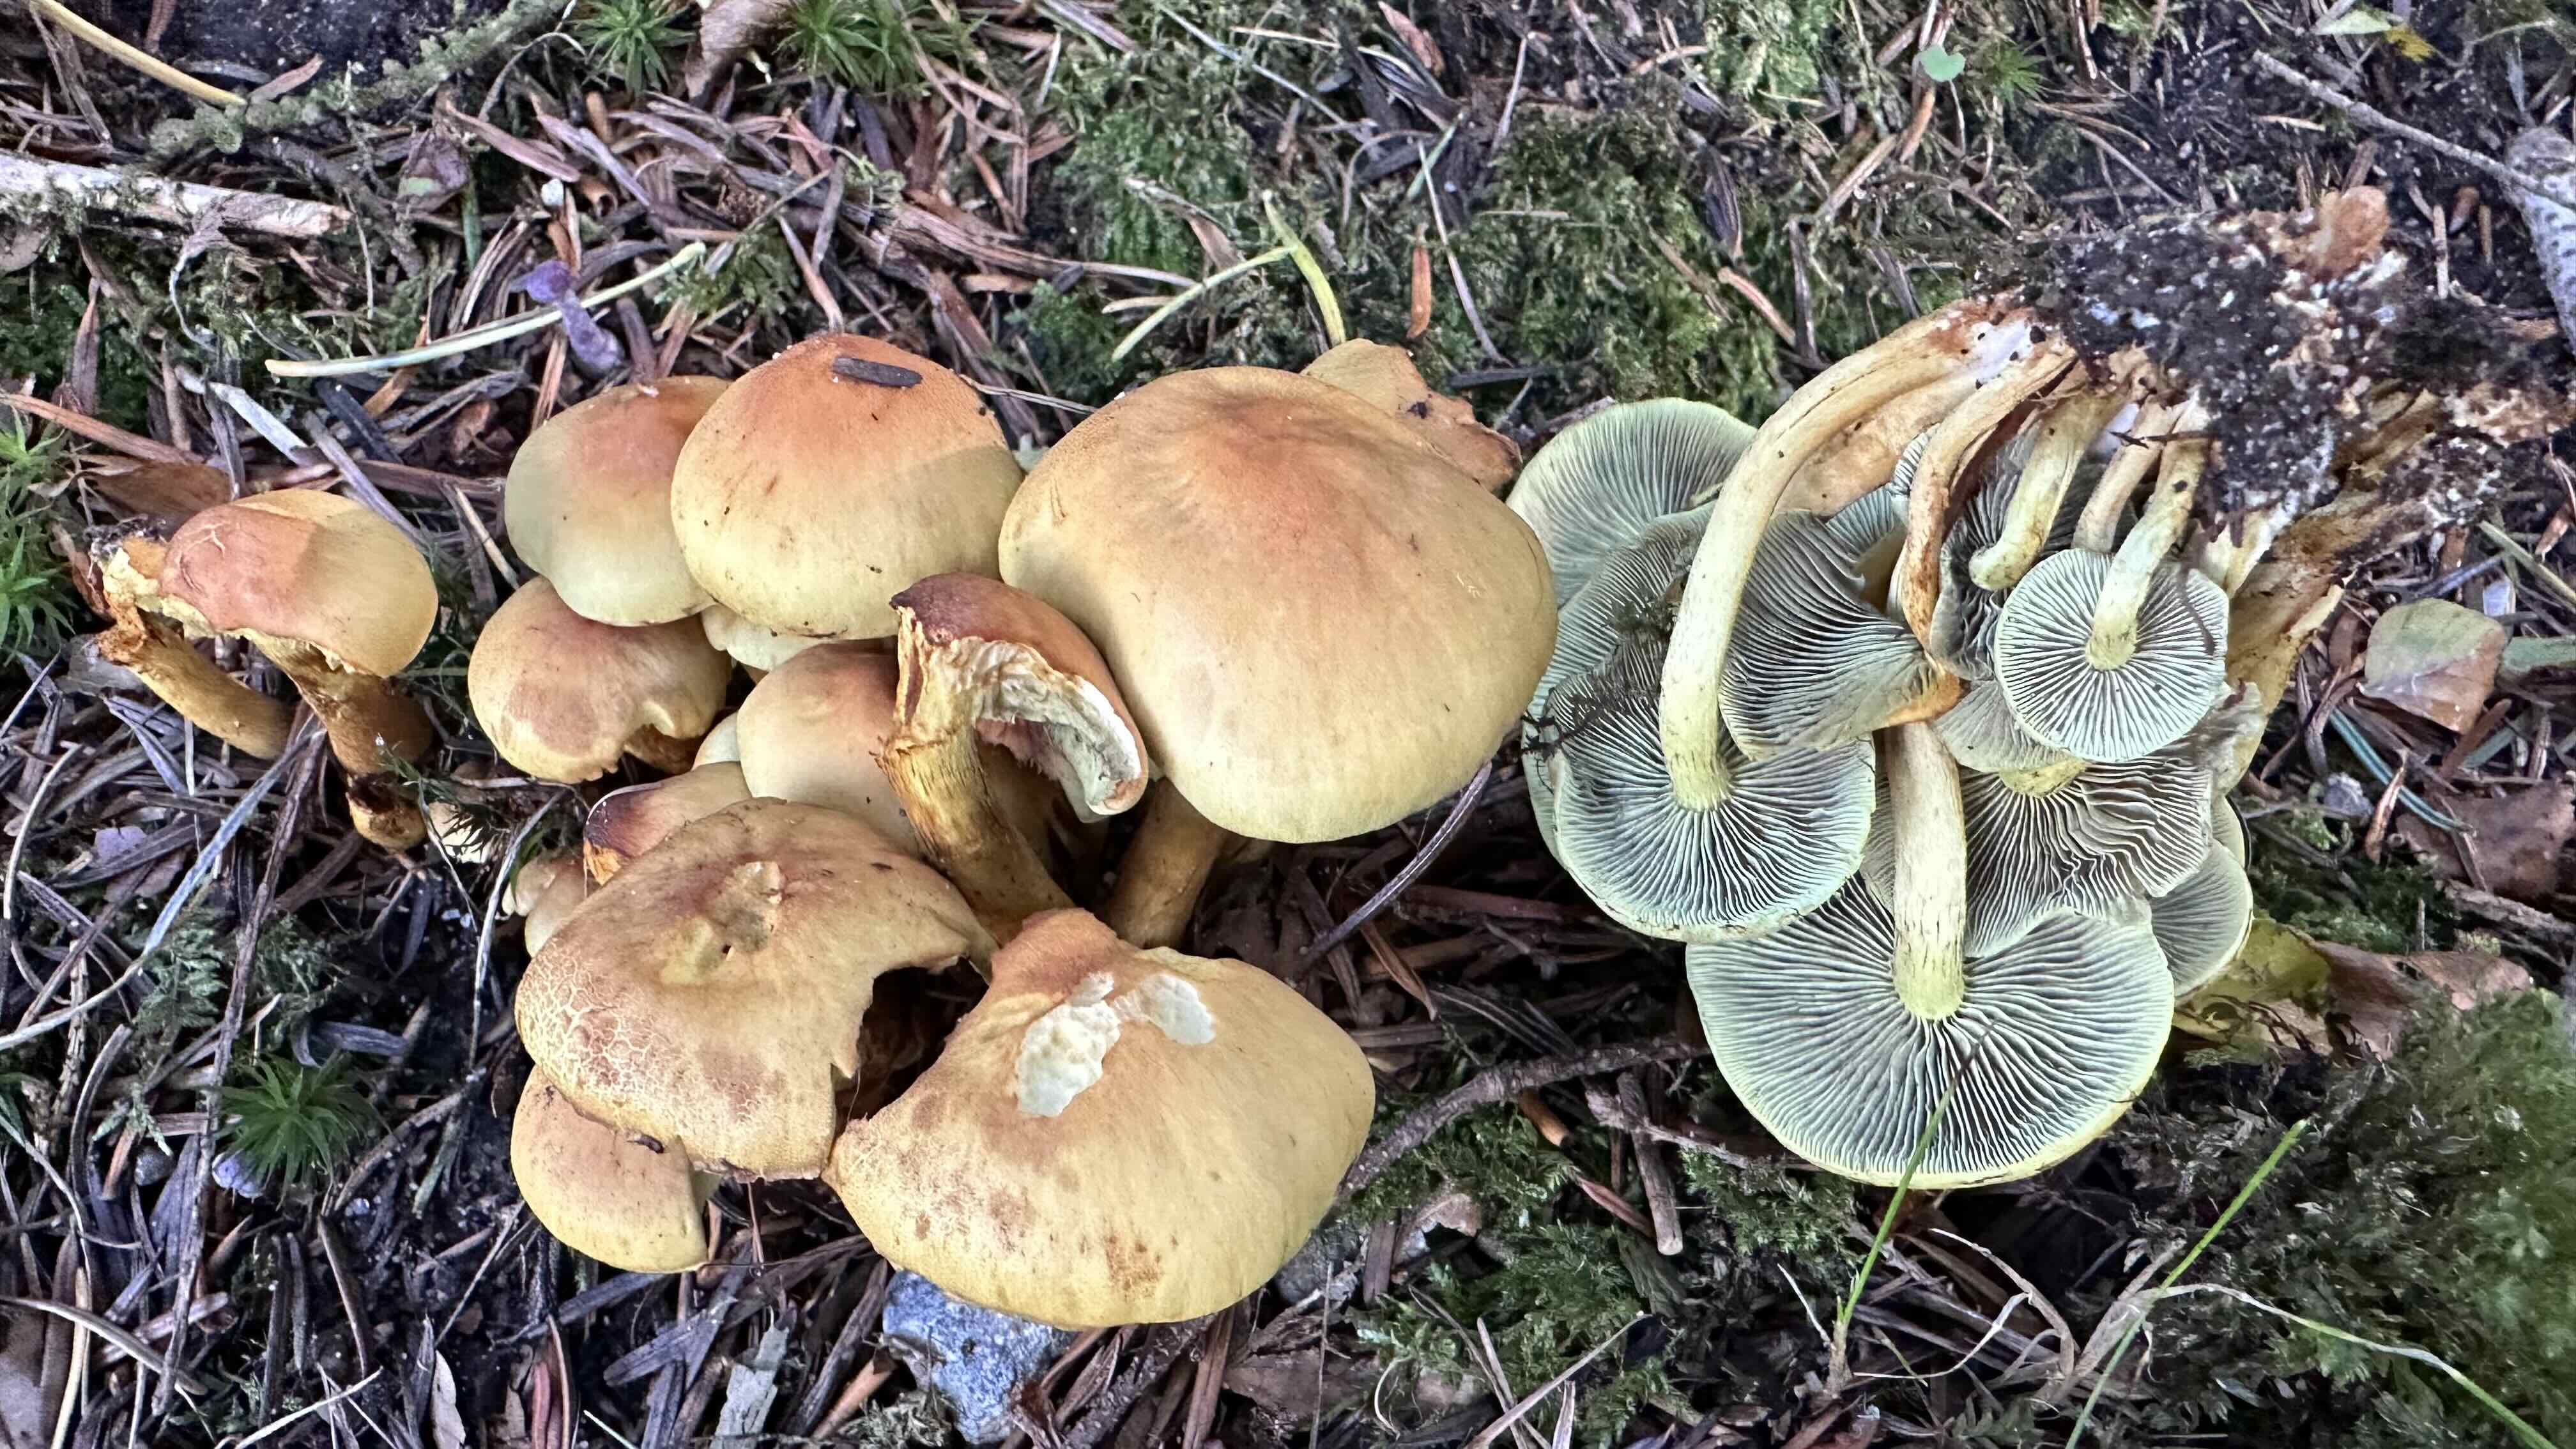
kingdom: Fungi
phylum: Basidiomycota
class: Agaricomycetes
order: Agaricales
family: Strophariaceae
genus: Hypholoma
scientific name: Hypholoma fasciculare
